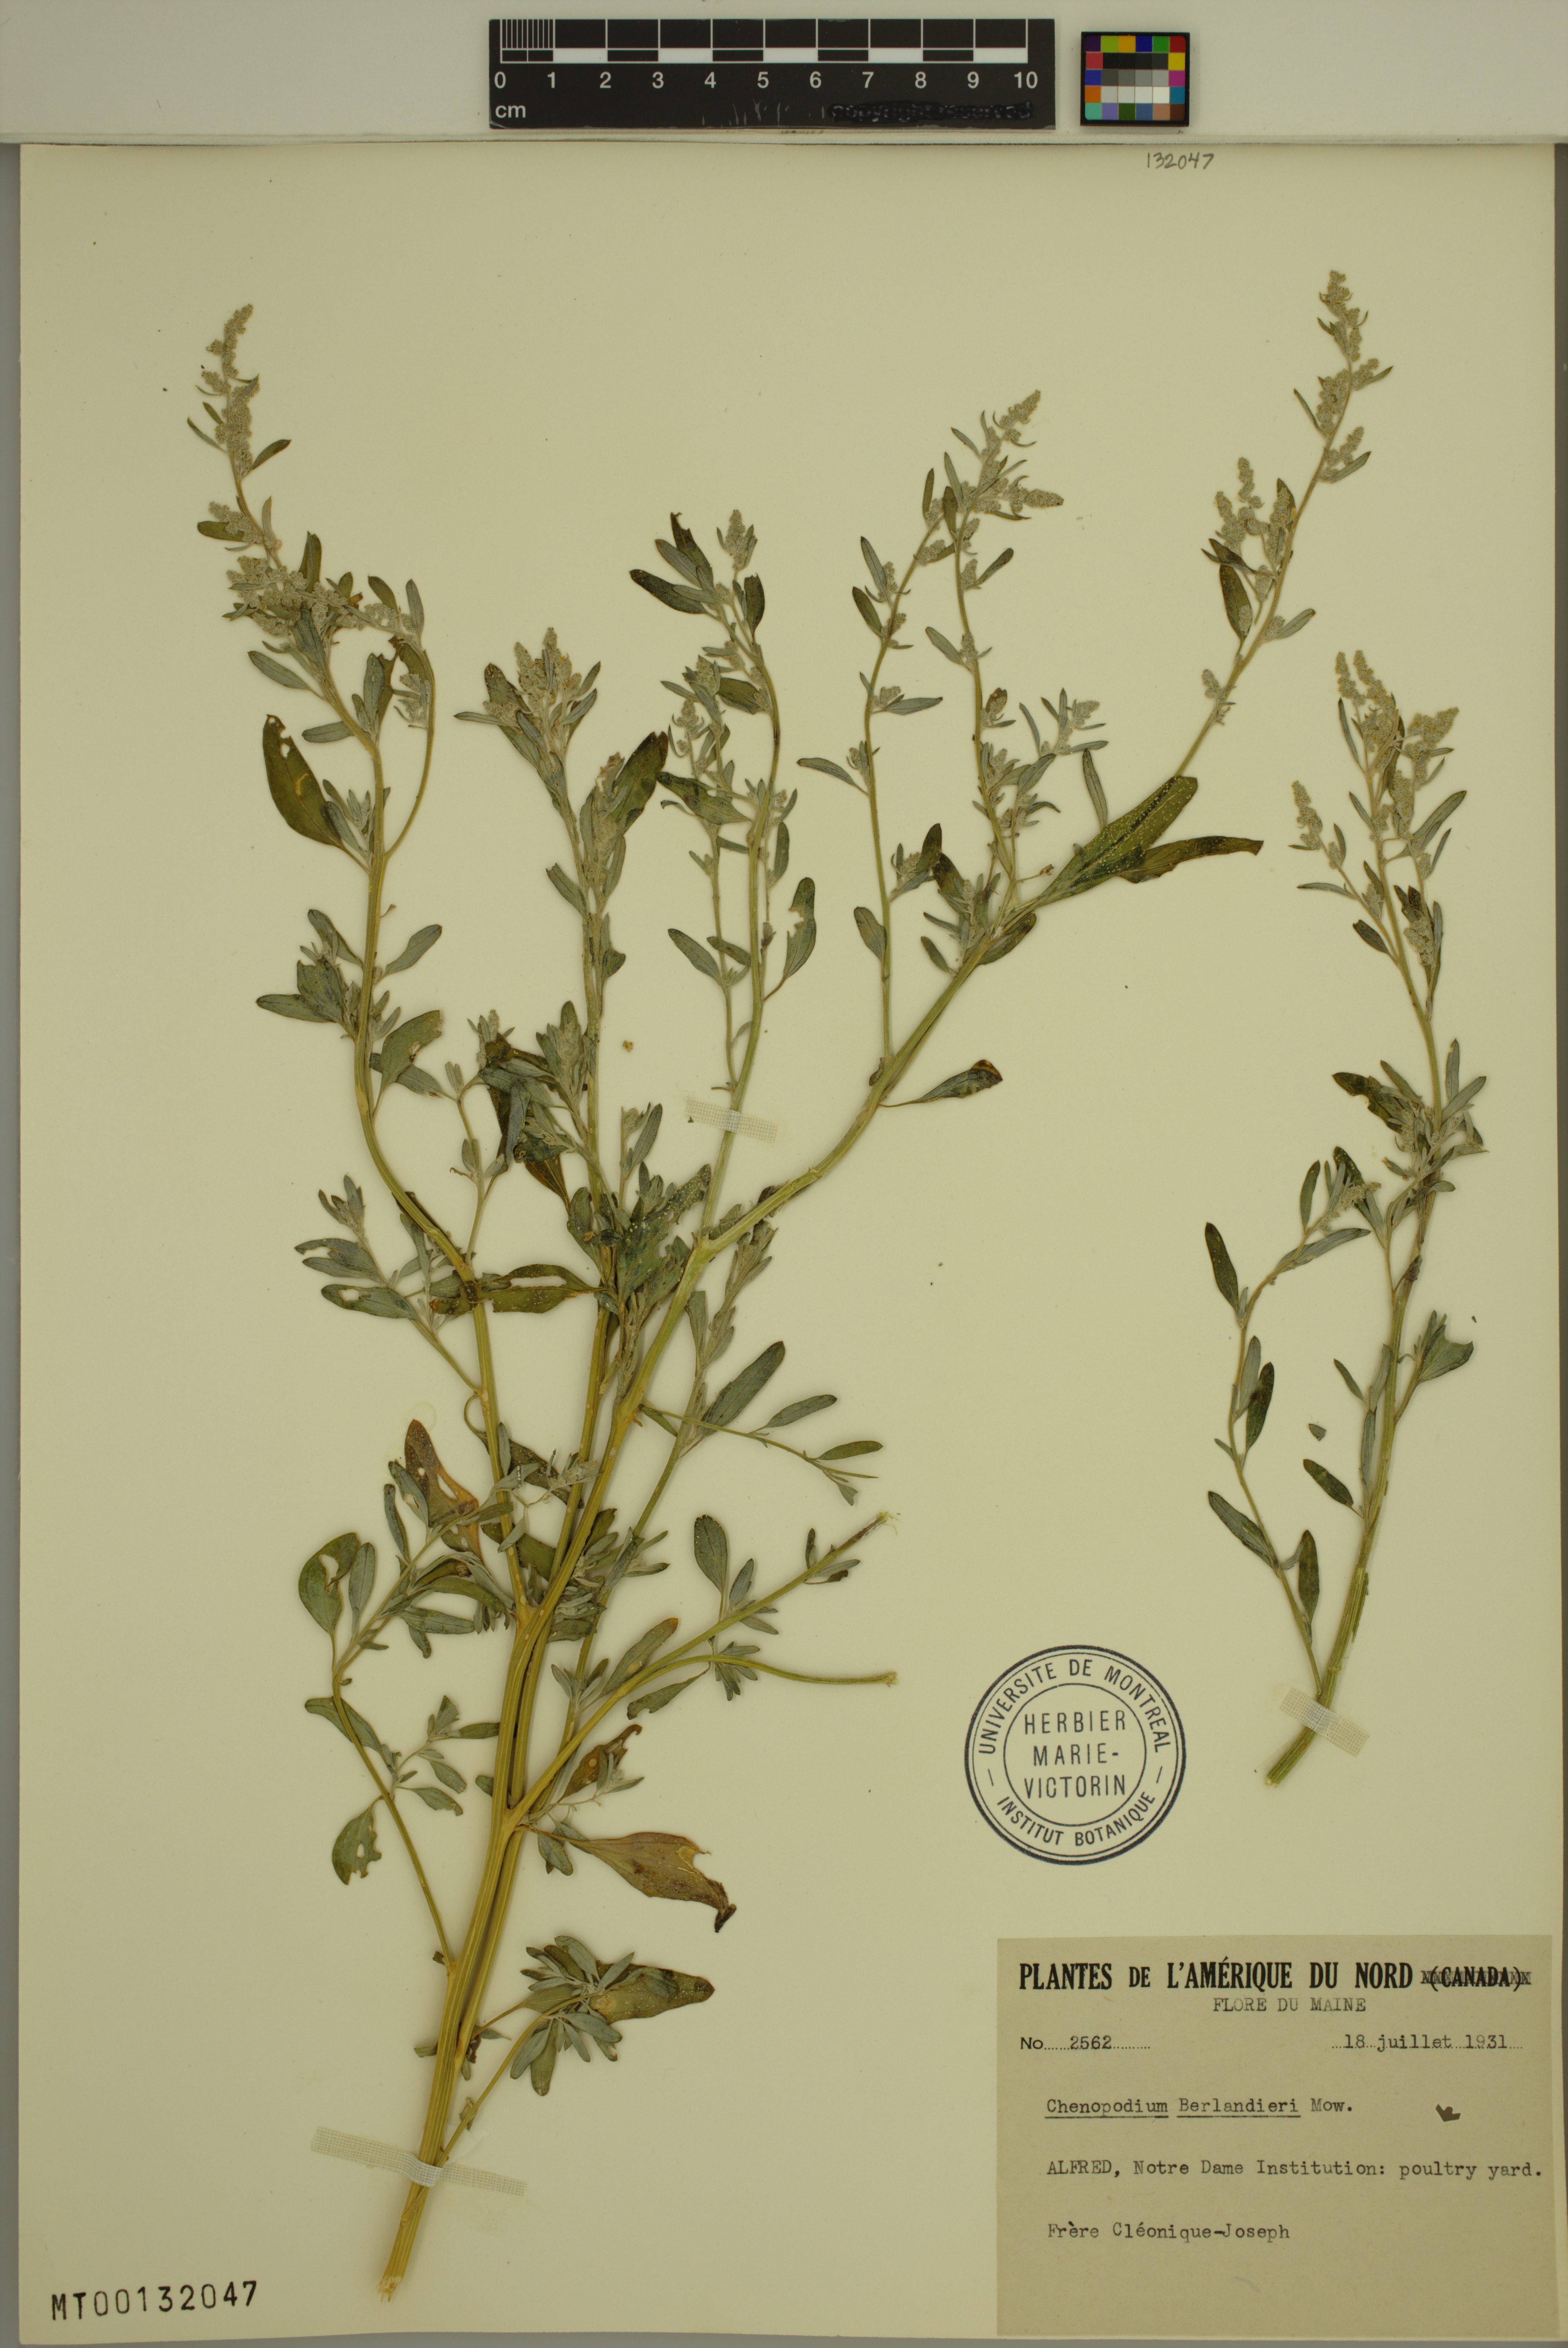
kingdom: Plantae
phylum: Tracheophyta
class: Magnoliopsida
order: Caryophyllales
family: Amaranthaceae
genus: Chenopodium
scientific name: Chenopodium berlandieri
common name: Pit-seed goosefoot
